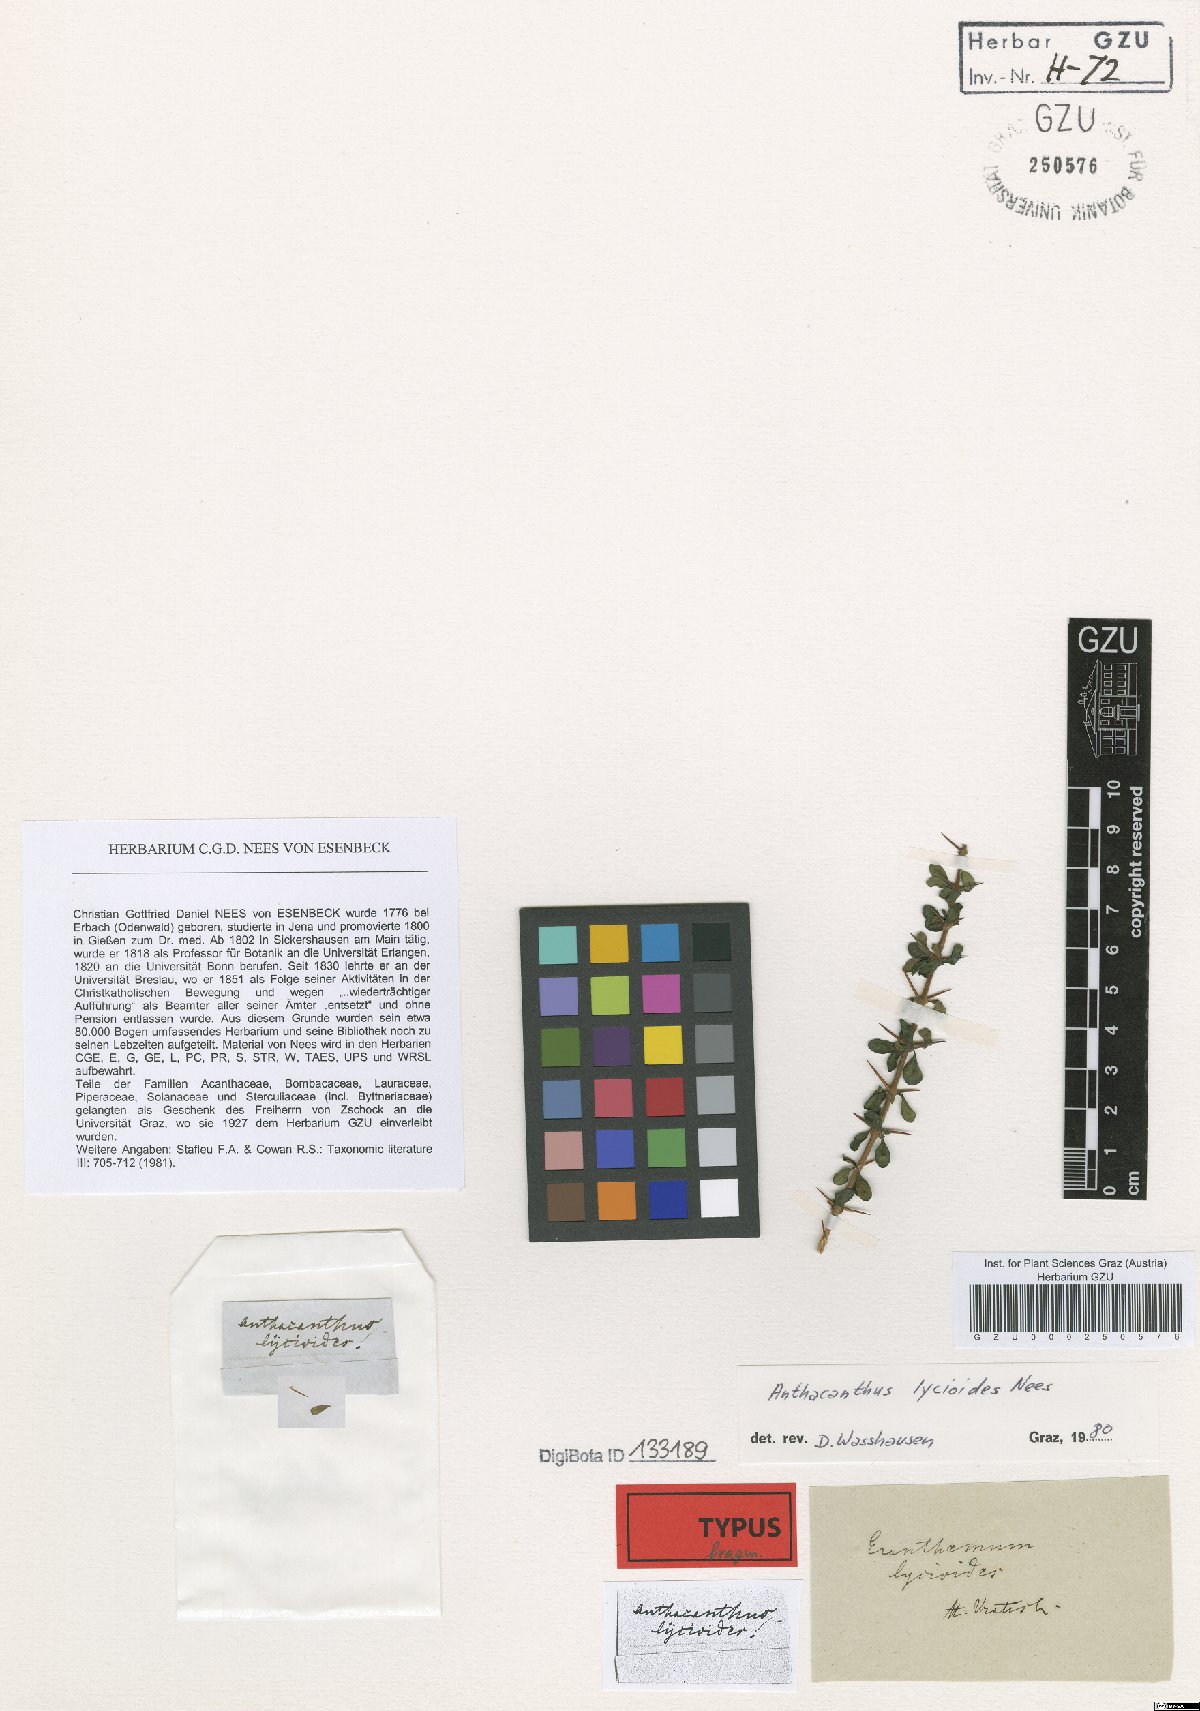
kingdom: Plantae
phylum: Tracheophyta
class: Magnoliopsida
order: Lamiales
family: Acanthaceae
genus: Oplonia
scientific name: Oplonia microphylla
